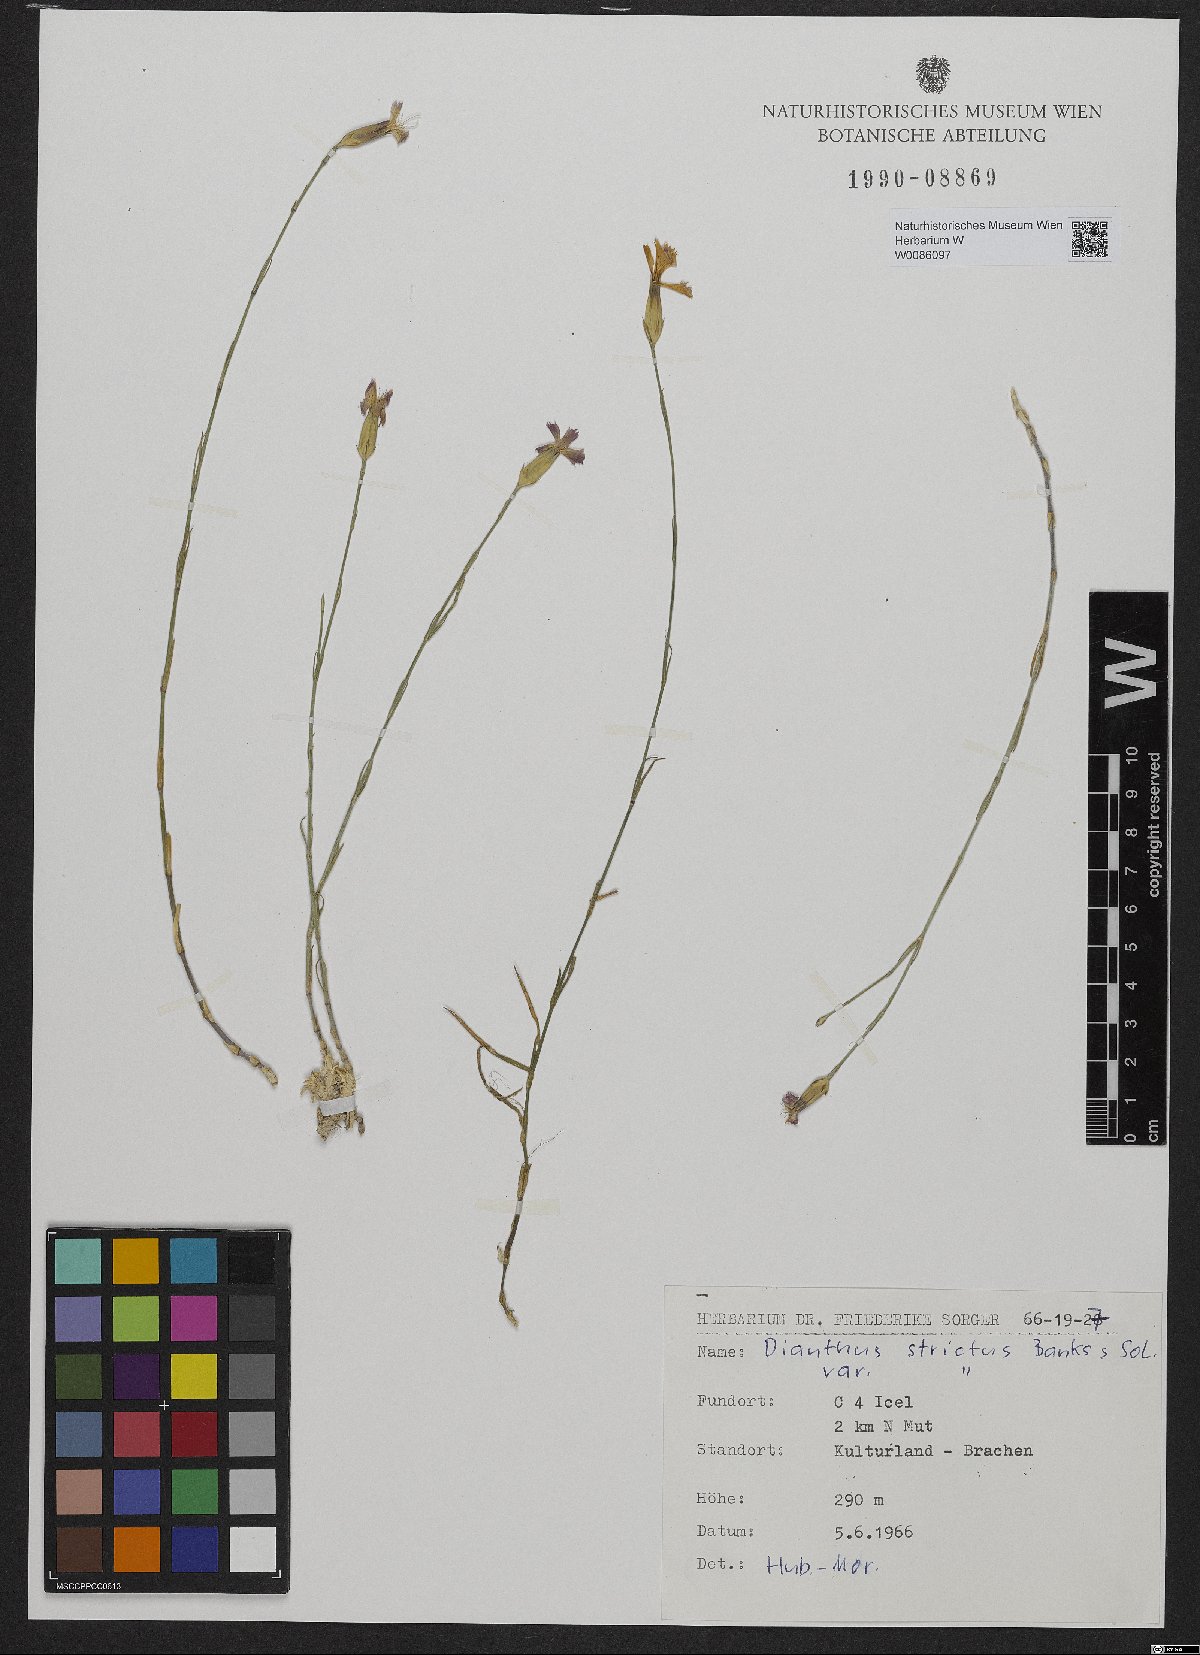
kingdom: Plantae
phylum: Tracheophyta
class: Magnoliopsida
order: Caryophyllales
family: Caryophyllaceae
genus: Dianthus
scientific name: Dianthus strictus
